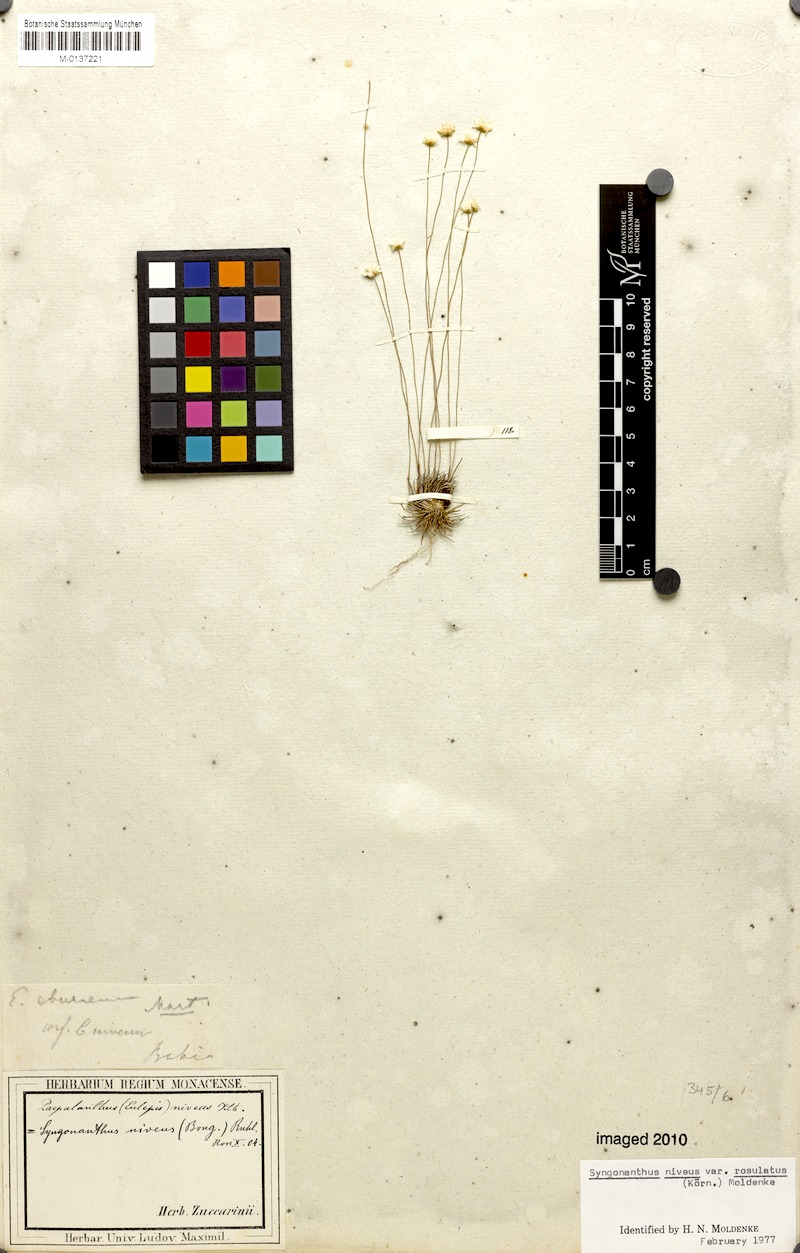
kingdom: Plantae
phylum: Tracheophyta
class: Liliopsida
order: Poales
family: Eriocaulaceae
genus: Comanthera
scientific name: Comanthera nivea
